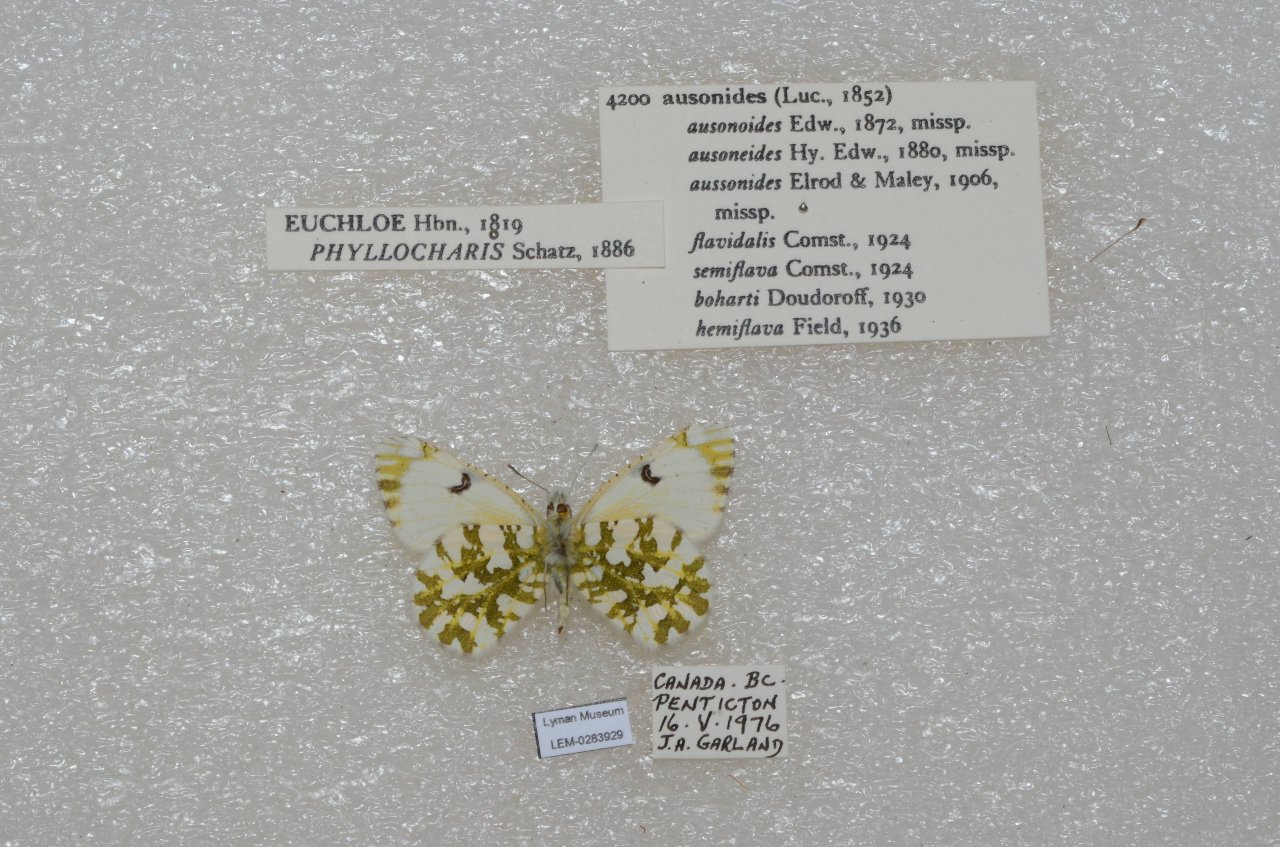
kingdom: Animalia
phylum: Arthropoda
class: Insecta
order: Lepidoptera
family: Pieridae
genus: Euchloe
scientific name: Euchloe ausonides
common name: Large Marble
